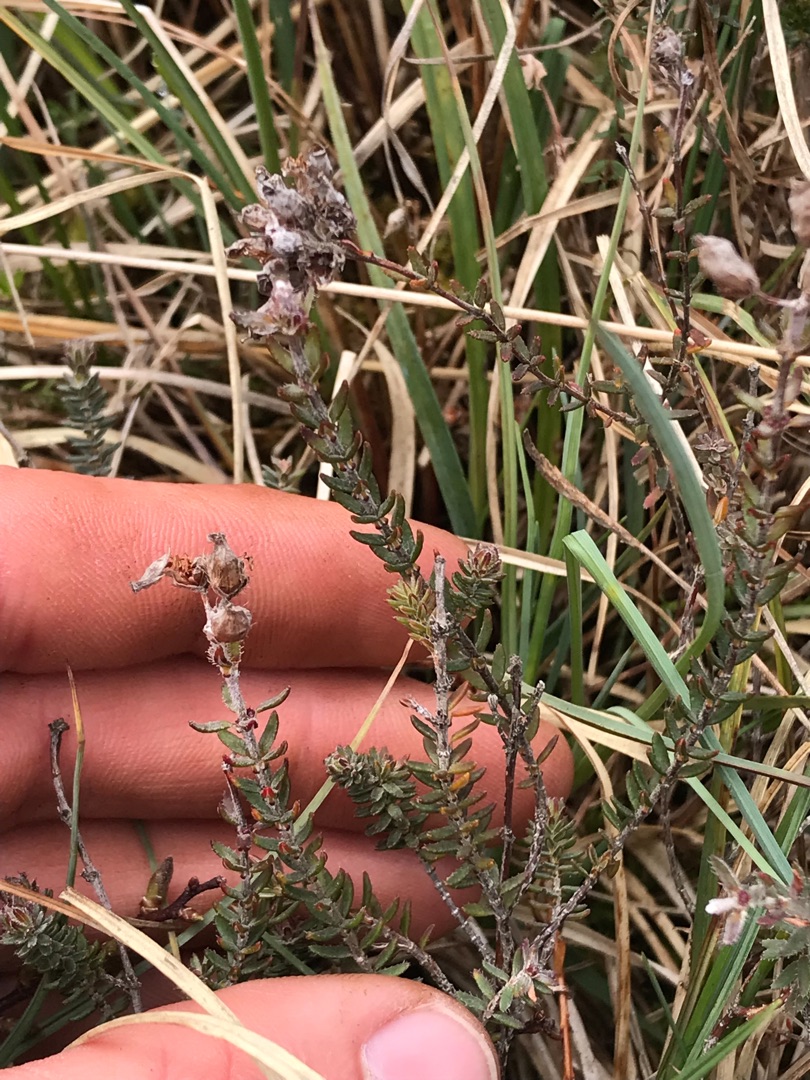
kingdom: Plantae
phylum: Tracheophyta
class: Magnoliopsida
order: Ericales
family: Ericaceae
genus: Erica
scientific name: Erica tetralix
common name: Klokkelyng
